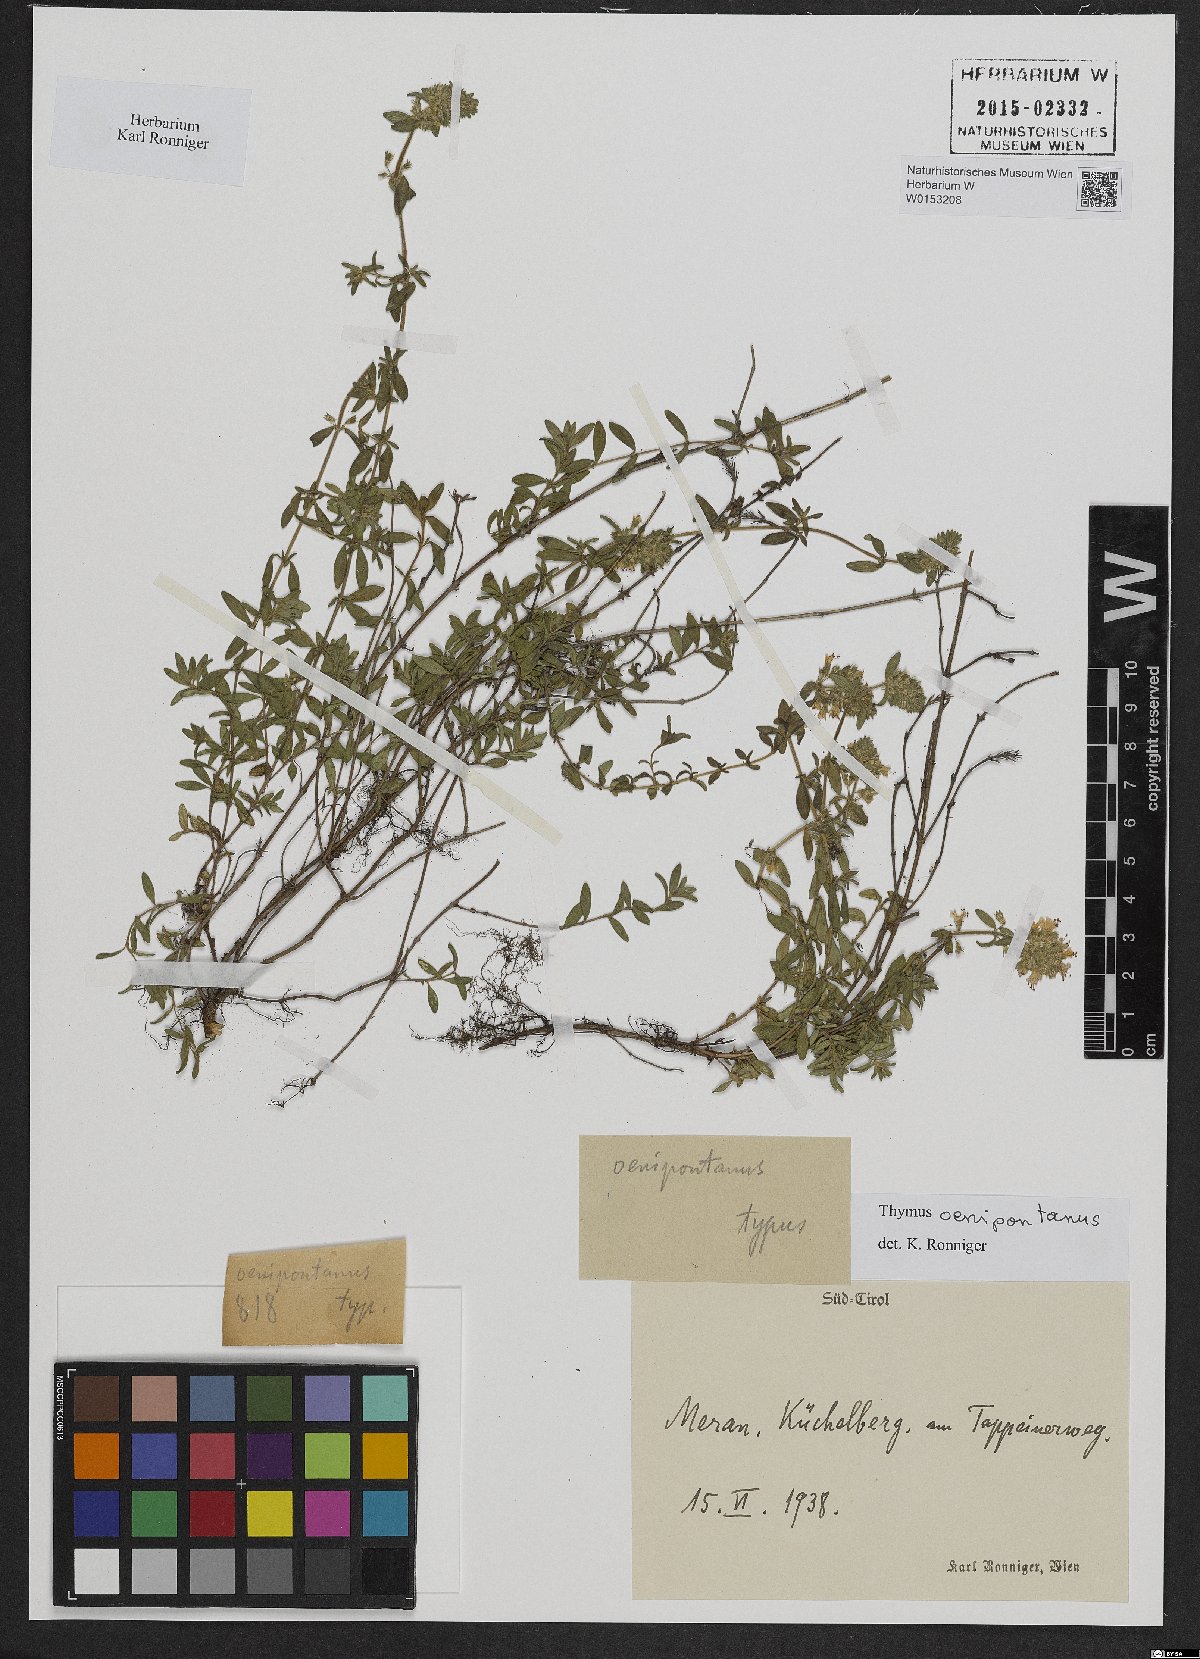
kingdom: Plantae
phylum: Tracheophyta
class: Magnoliopsida
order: Lamiales
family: Lamiaceae
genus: Thymus
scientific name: Thymus oenipontanus
